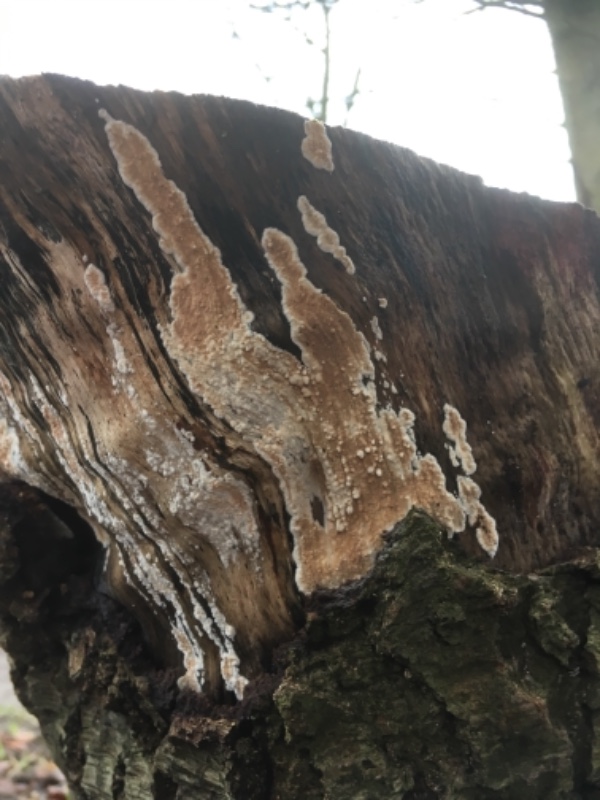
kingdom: Fungi
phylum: Basidiomycota
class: Agaricomycetes
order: Agaricales
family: Physalacriaceae
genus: Cylindrobasidium
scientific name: Cylindrobasidium evolvens
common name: sprækkehinde
